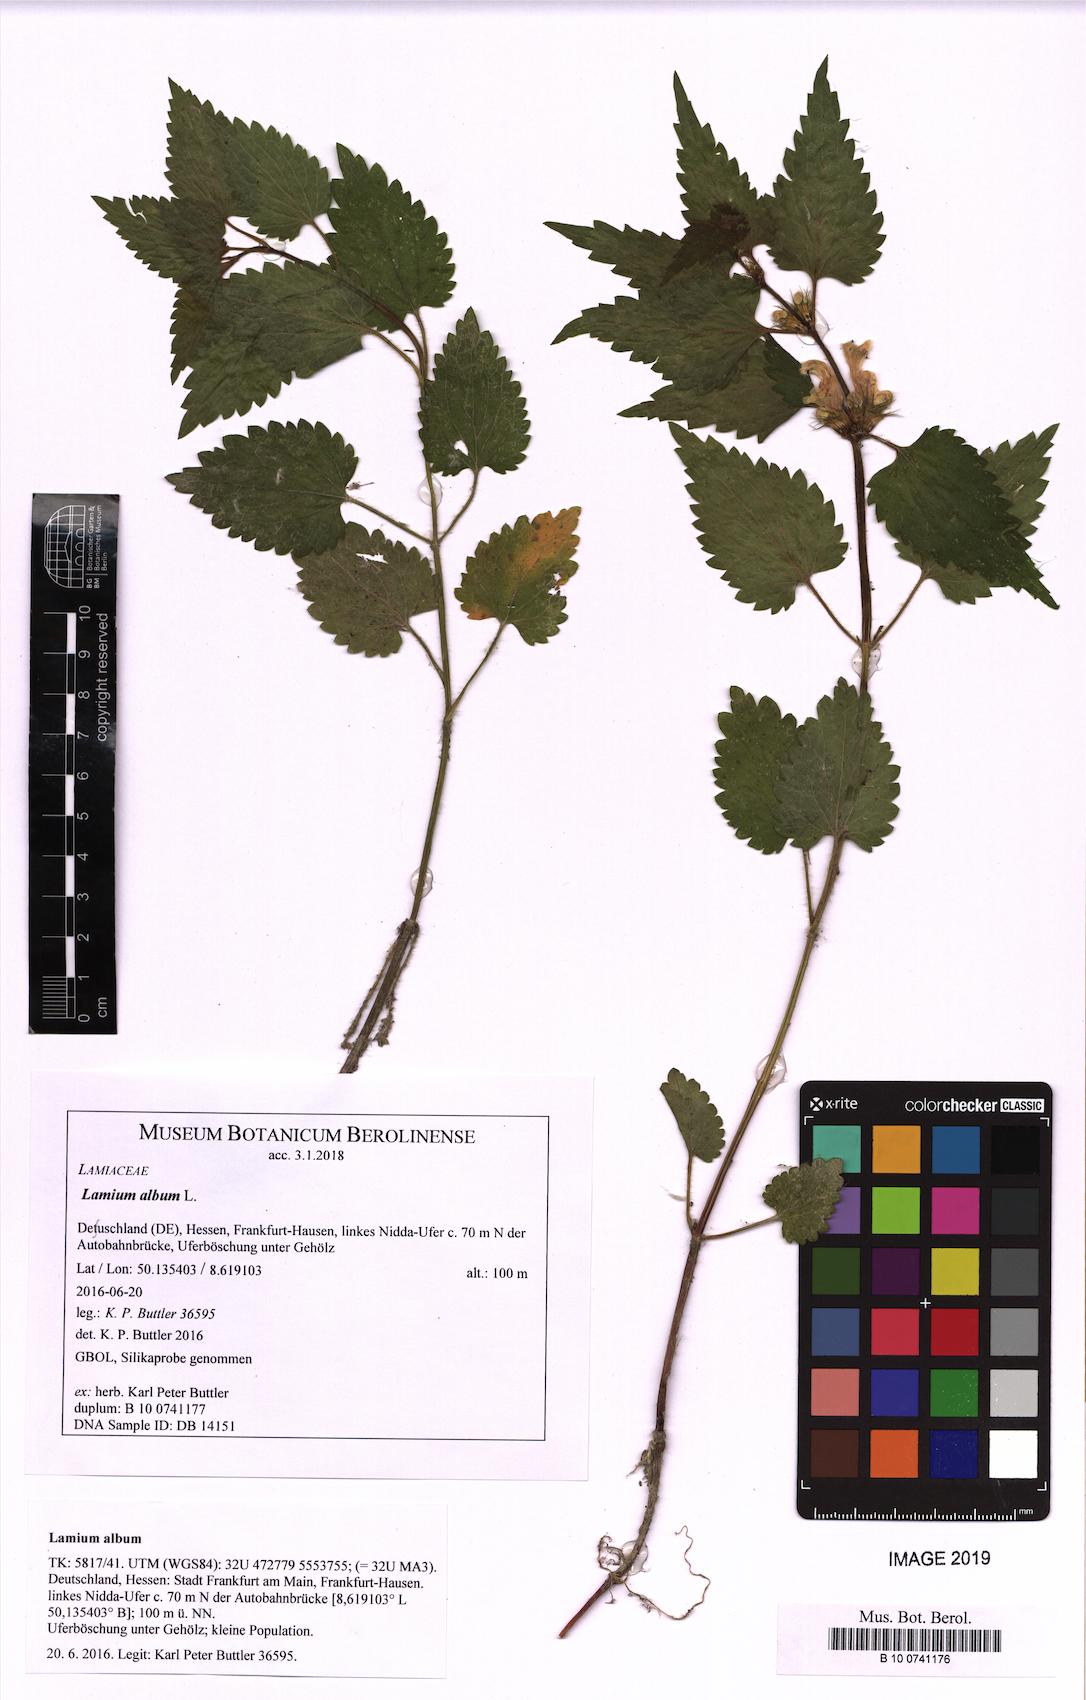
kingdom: Plantae
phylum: Tracheophyta
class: Magnoliopsida
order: Lamiales
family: Lamiaceae
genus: Lamium
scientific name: Lamium album
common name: White dead-nettle
